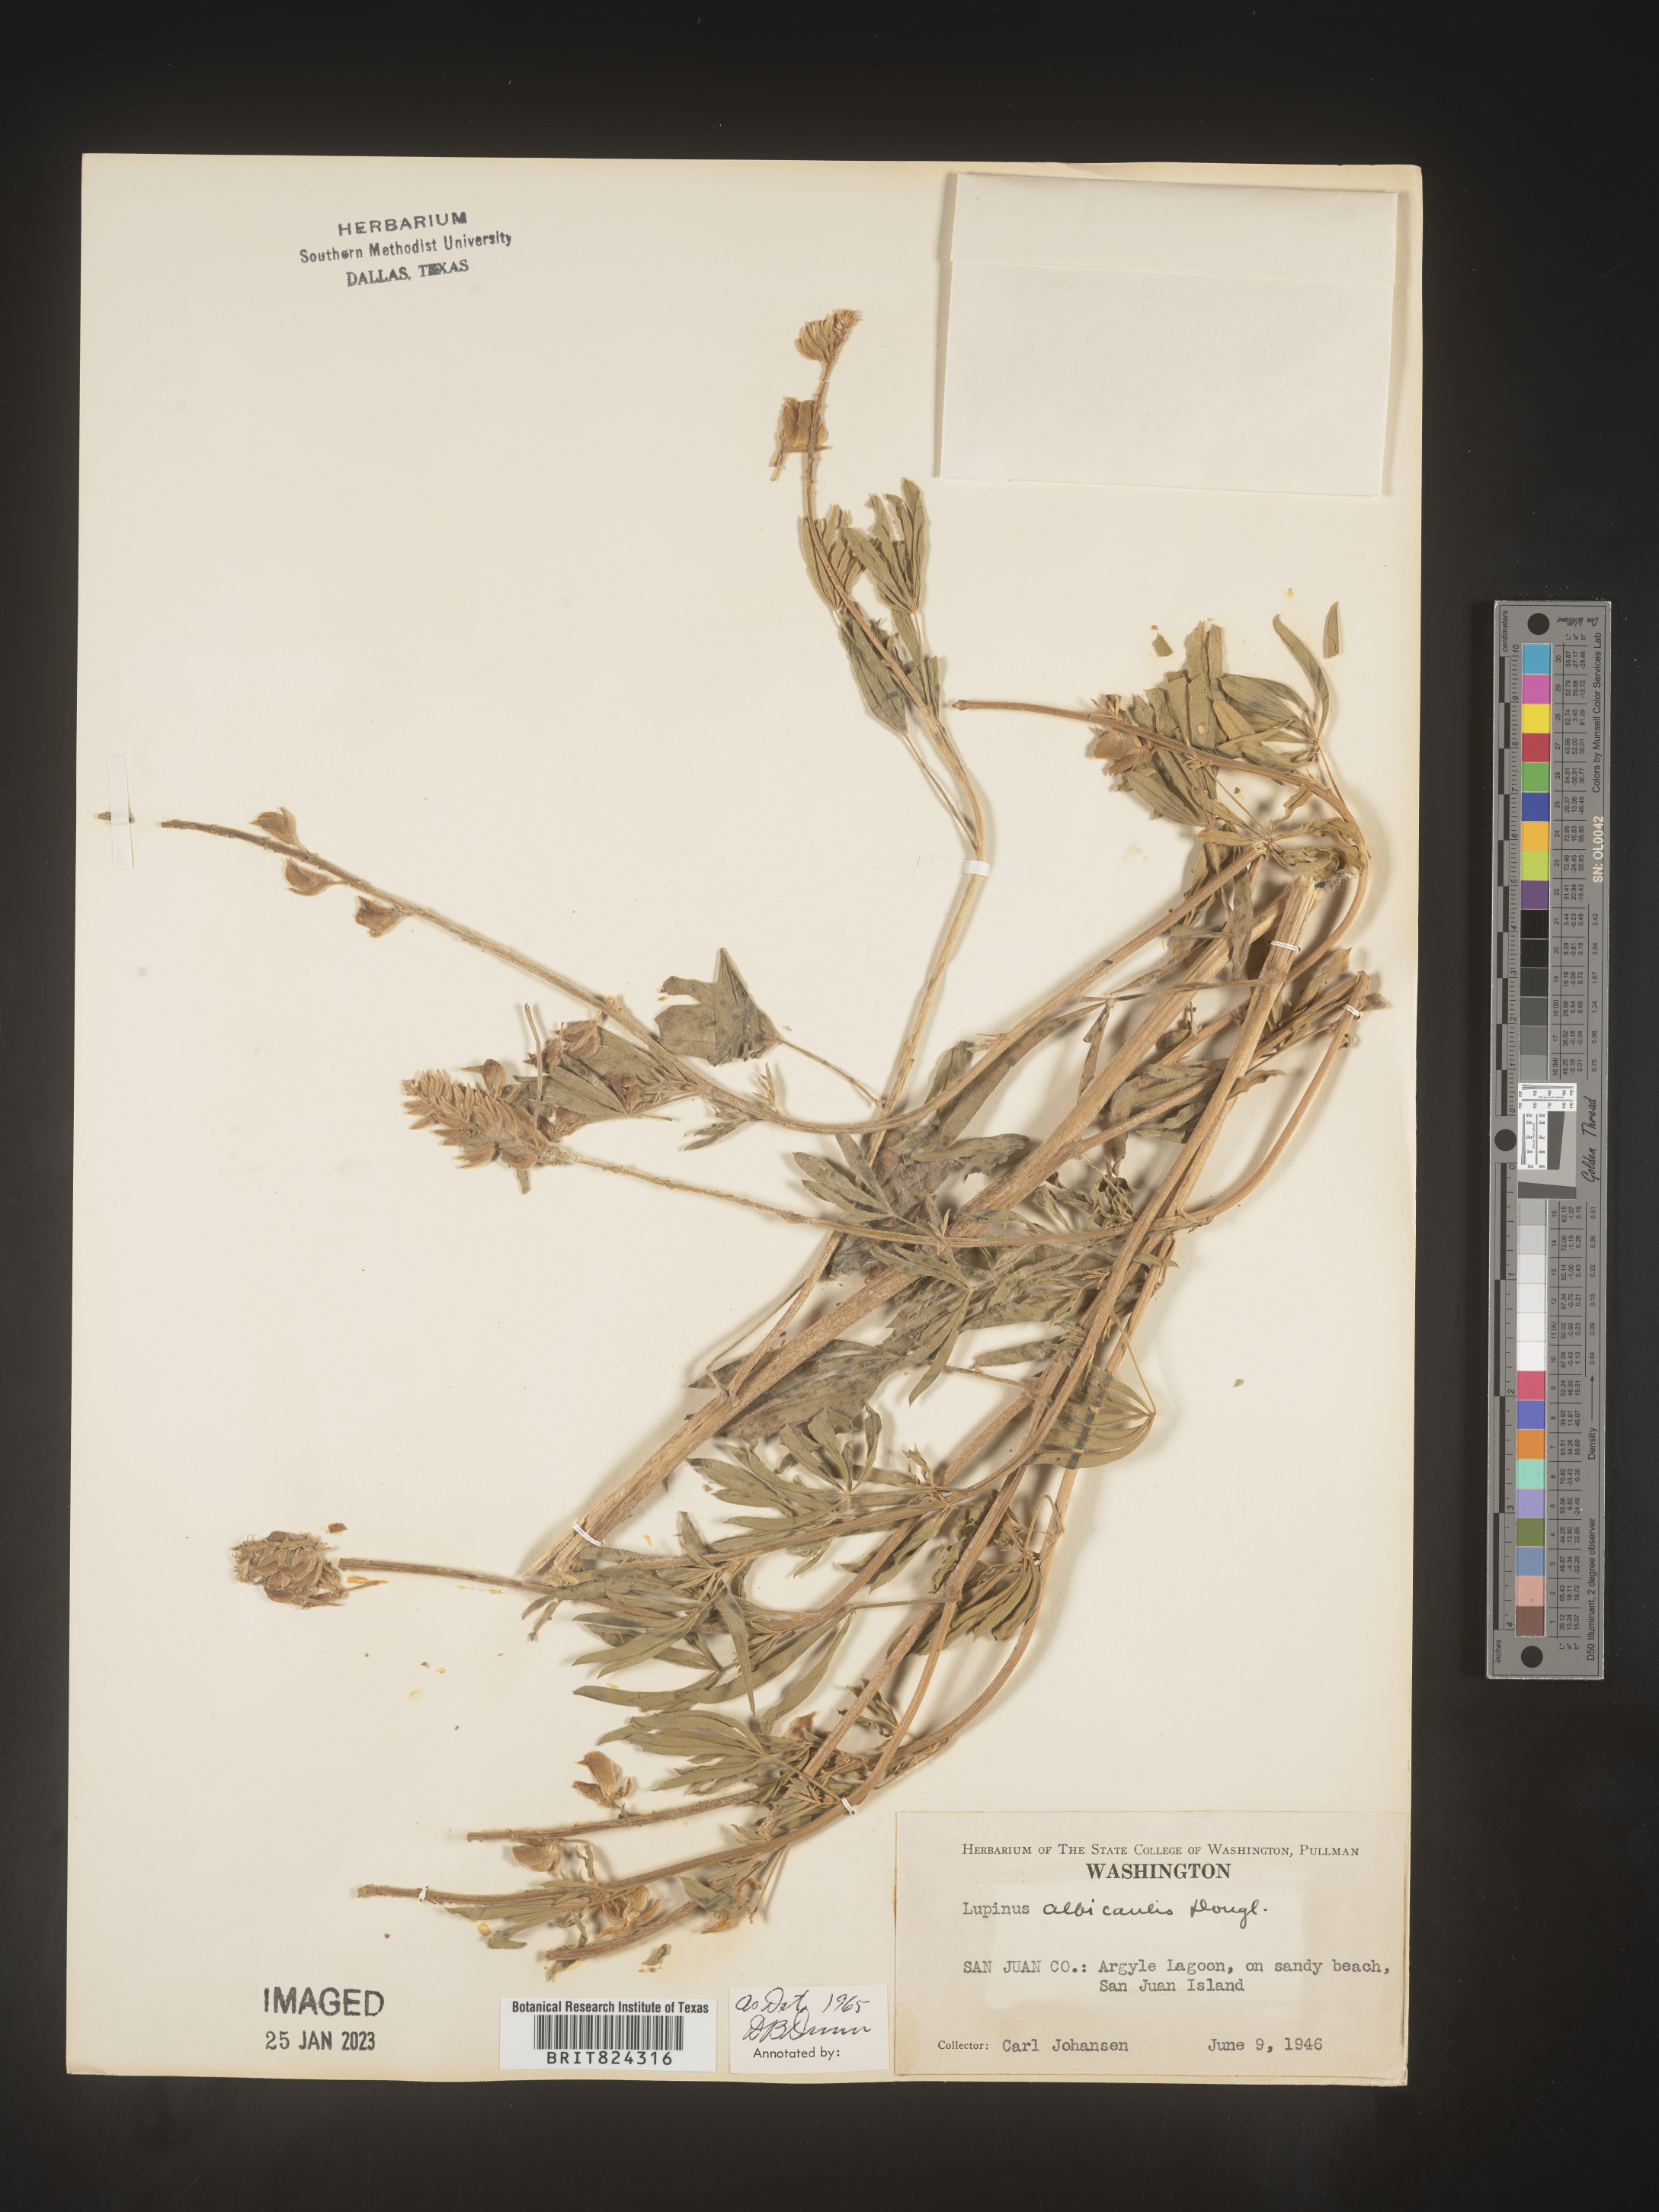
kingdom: Plantae
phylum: Tracheophyta
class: Magnoliopsida
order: Fabales
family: Fabaceae
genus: Lupinus
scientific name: Lupinus albicaulis
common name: Pine lupine
